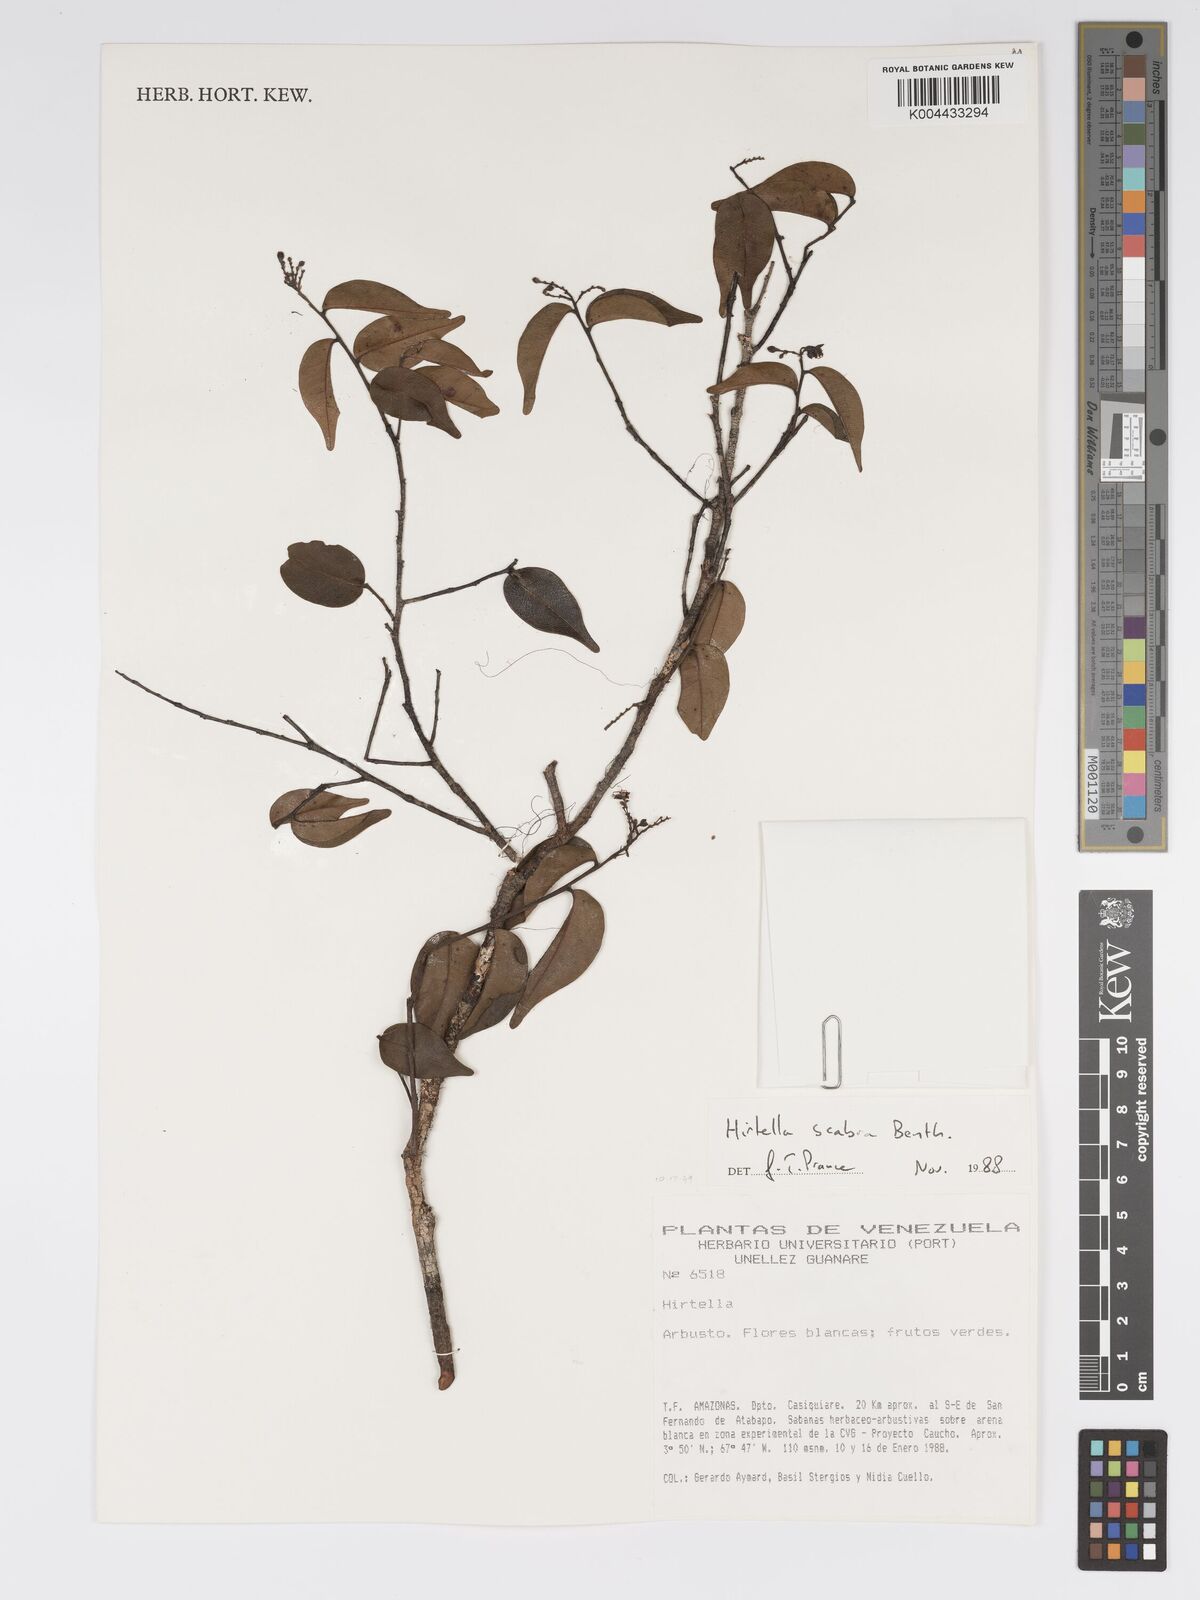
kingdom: Plantae
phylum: Tracheophyta
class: Magnoliopsida
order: Malpighiales
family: Chrysobalanaceae
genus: Hirtella
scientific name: Hirtella scabra
